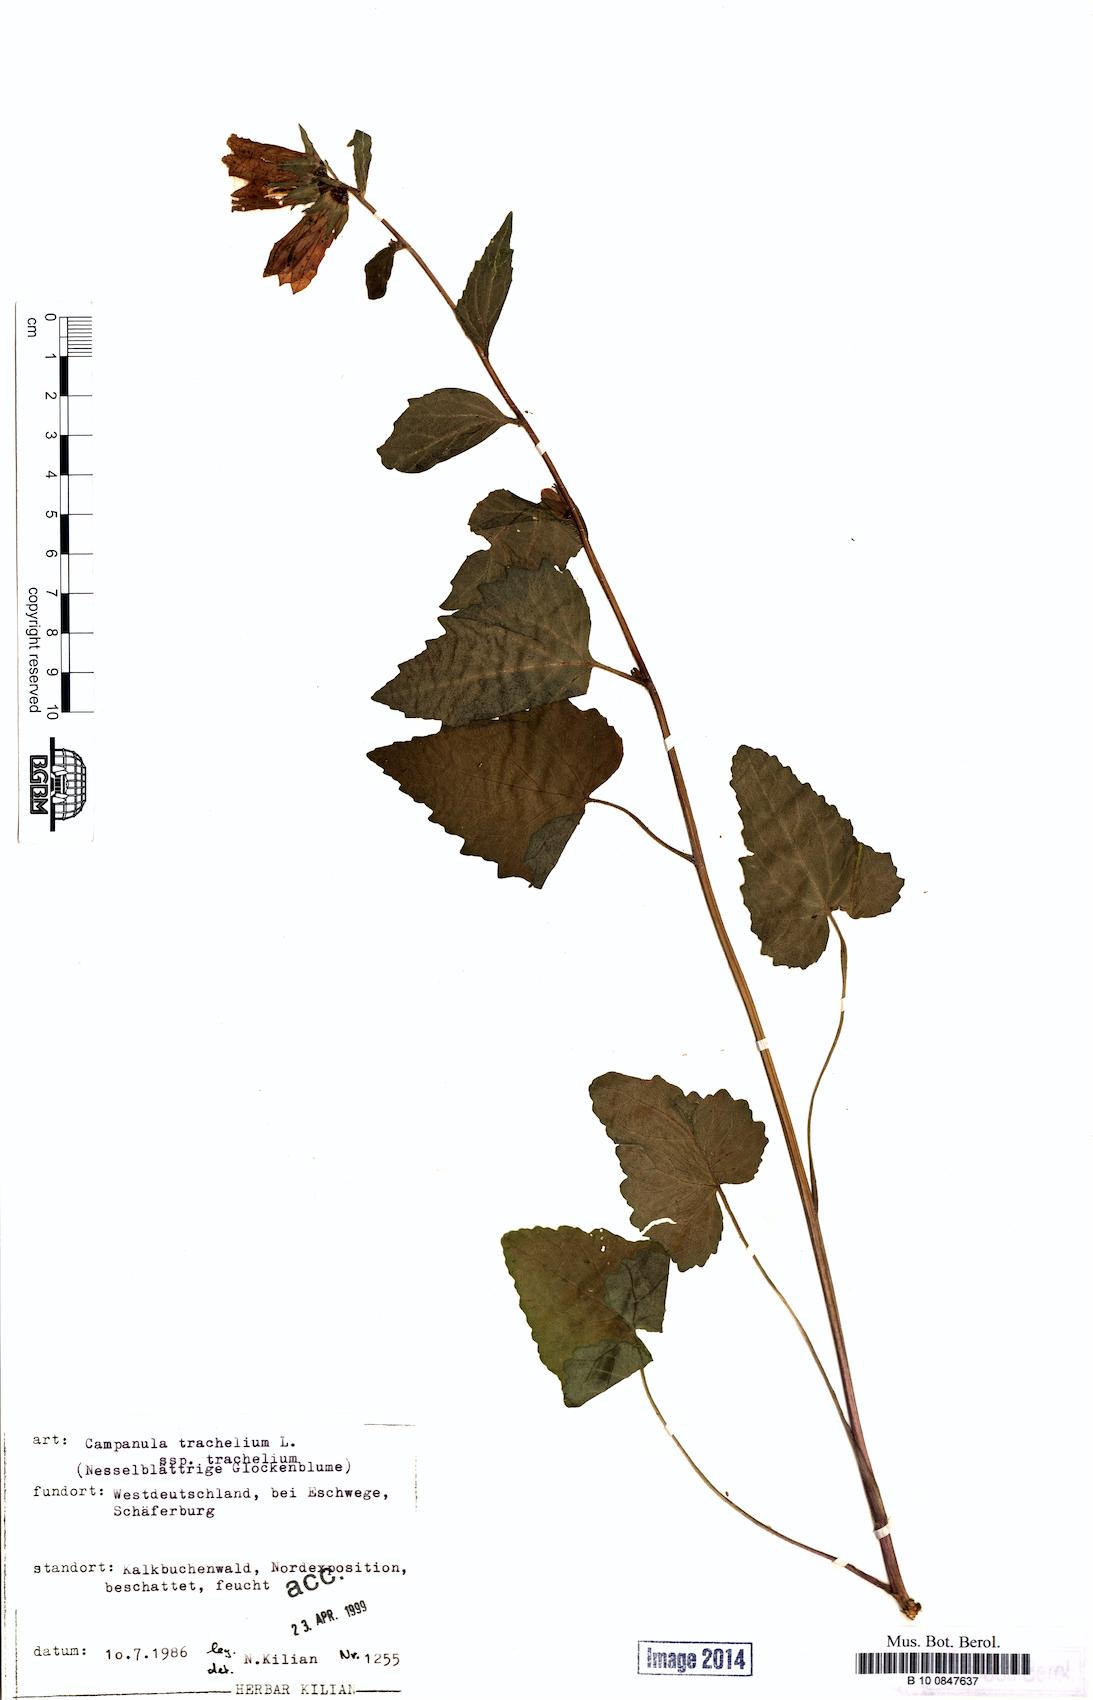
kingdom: Plantae
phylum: Tracheophyta
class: Magnoliopsida
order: Asterales
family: Campanulaceae
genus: Campanula
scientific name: Campanula trachelium
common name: Nettle-leaved bellflower
